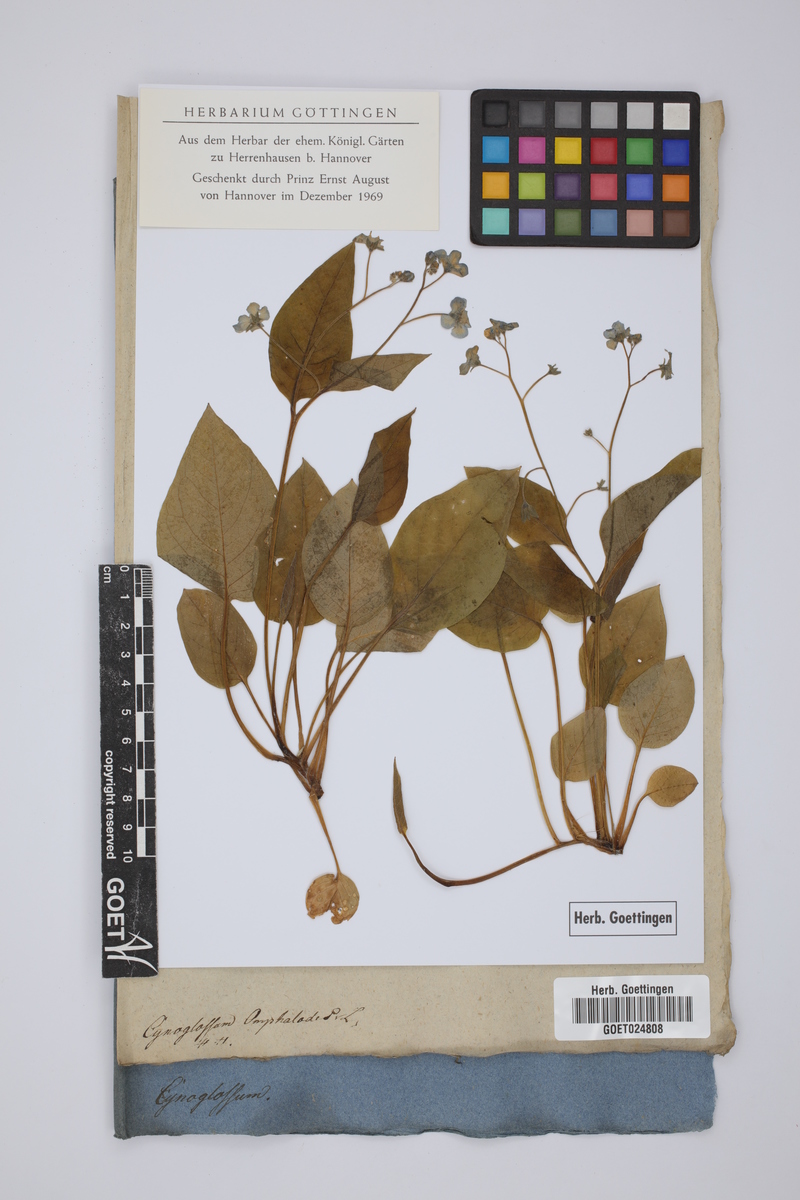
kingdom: Plantae
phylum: Tracheophyta
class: Magnoliopsida
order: Boraginales
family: Boraginaceae
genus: Omphalodes
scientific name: Omphalodes verna
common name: Blue-eyed-mary
